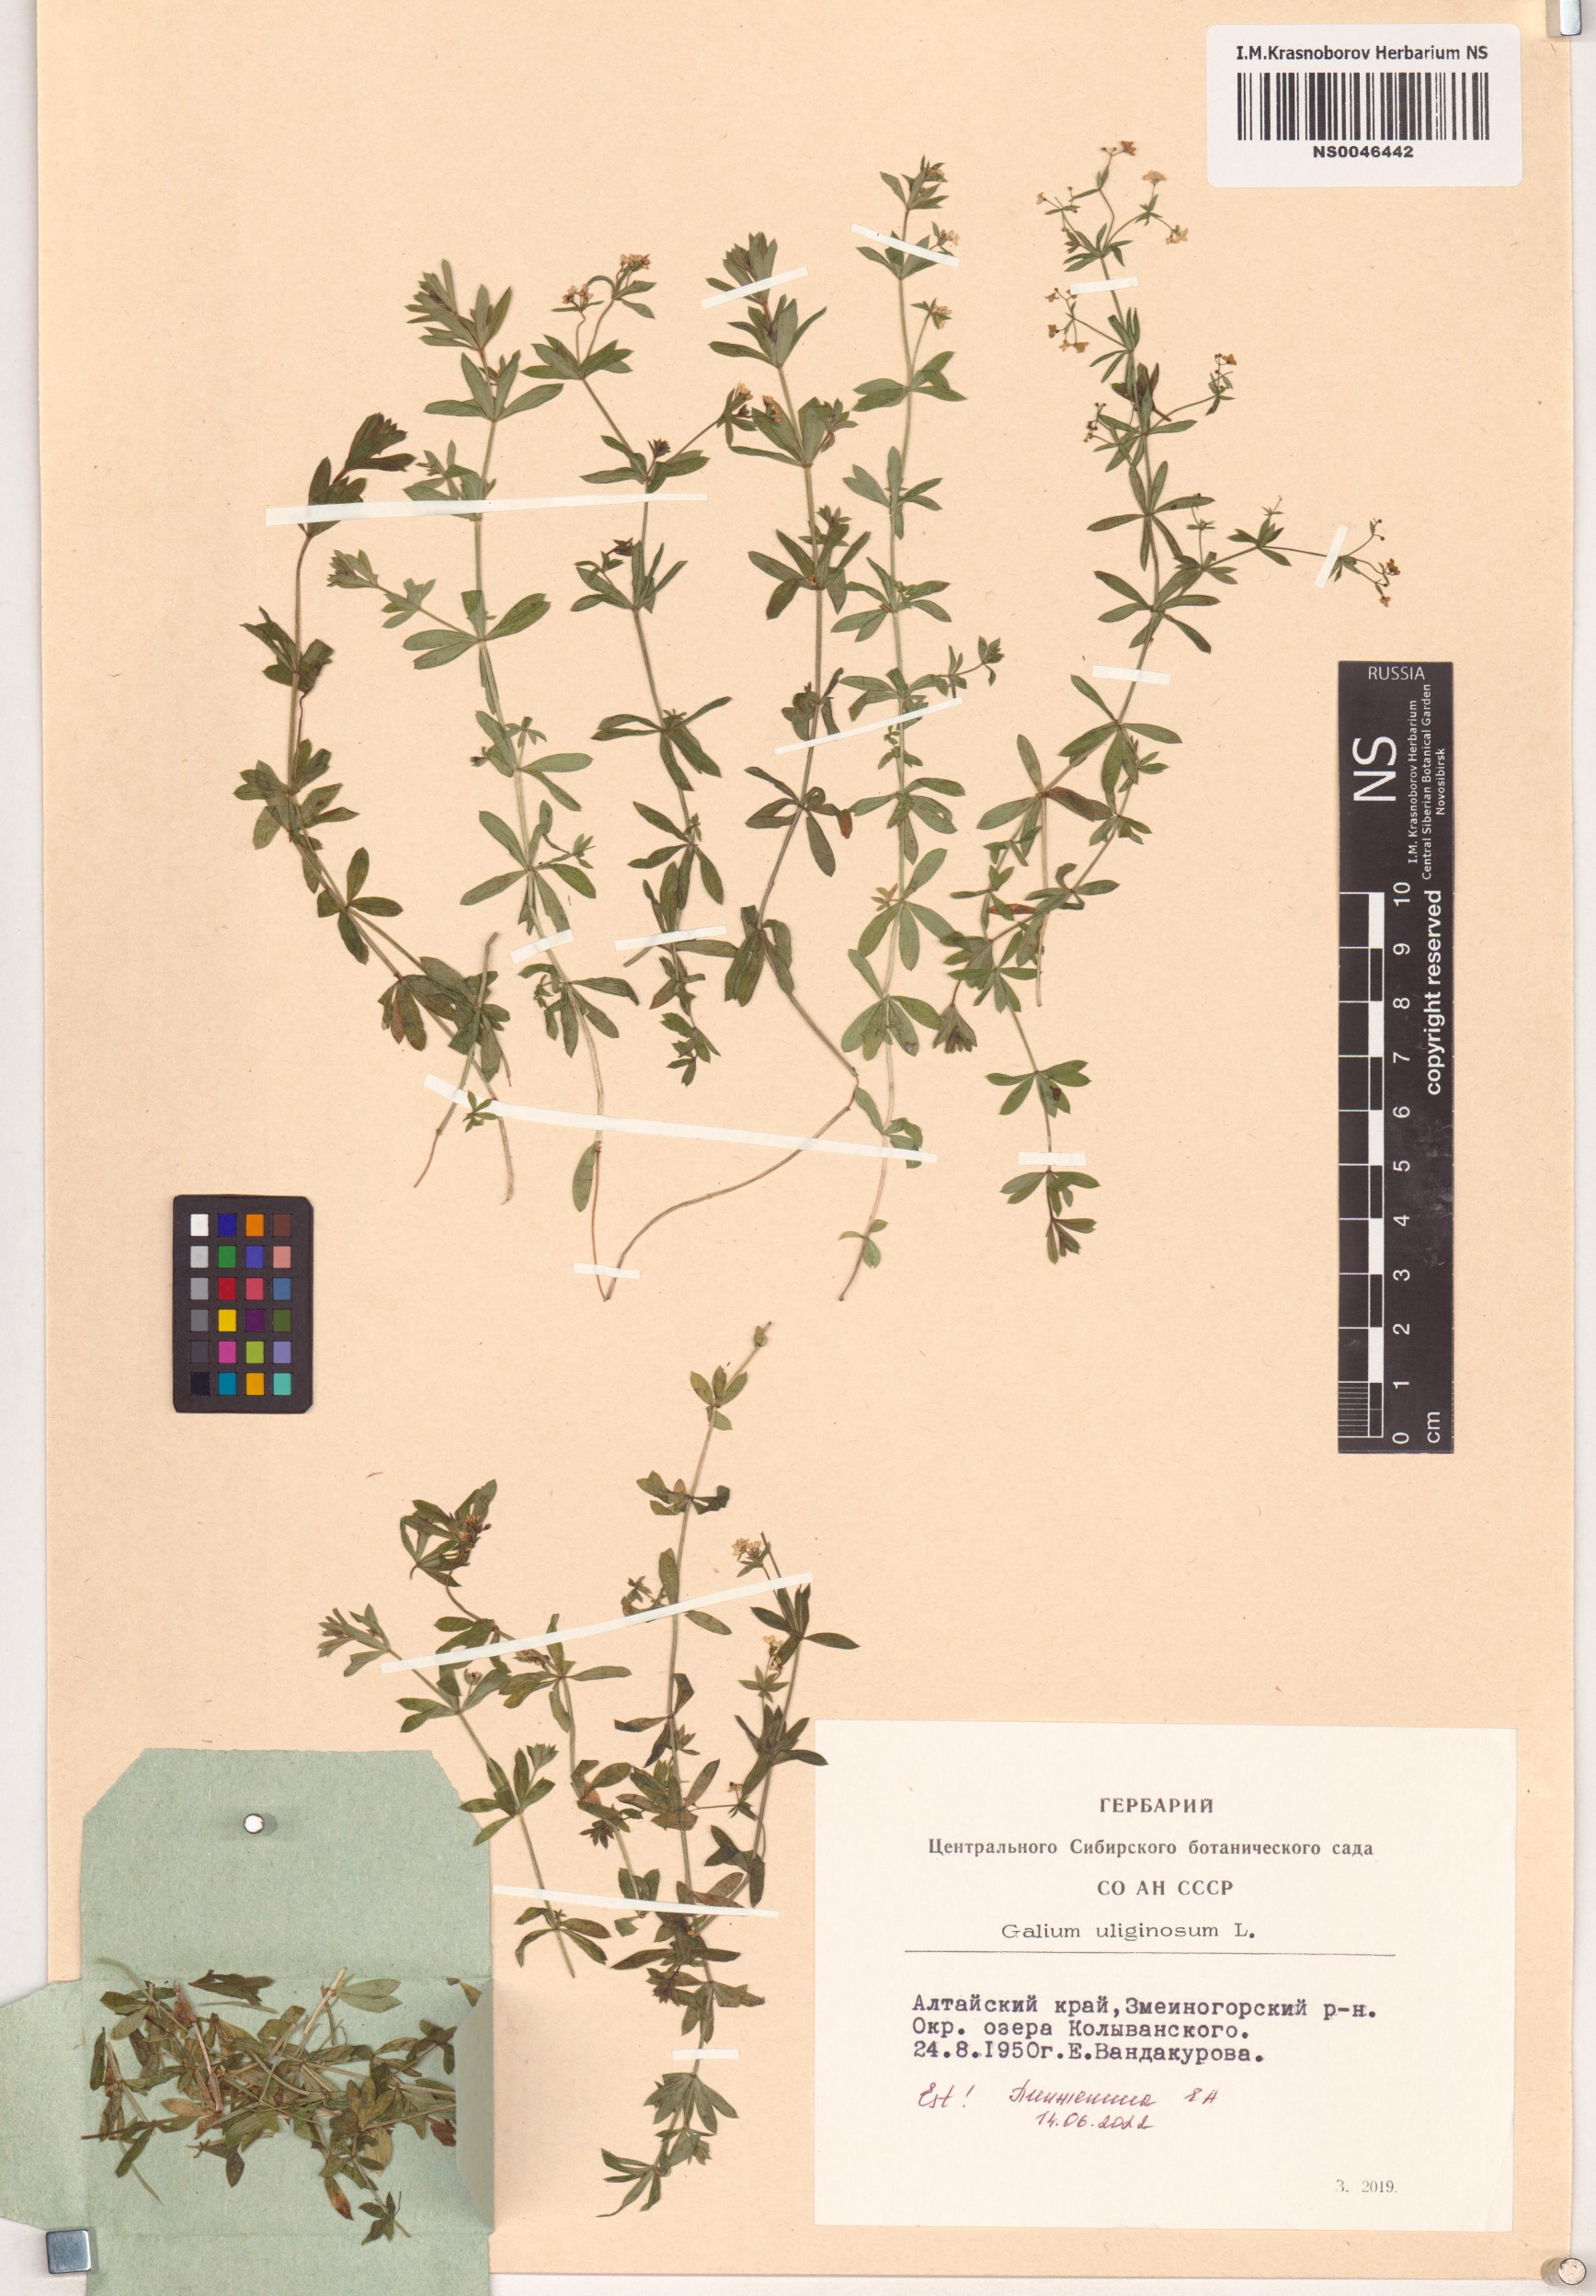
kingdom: Plantae
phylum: Tracheophyta
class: Magnoliopsida
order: Gentianales
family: Rubiaceae
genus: Galium
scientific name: Galium uliginosum
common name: Fen bedstraw
